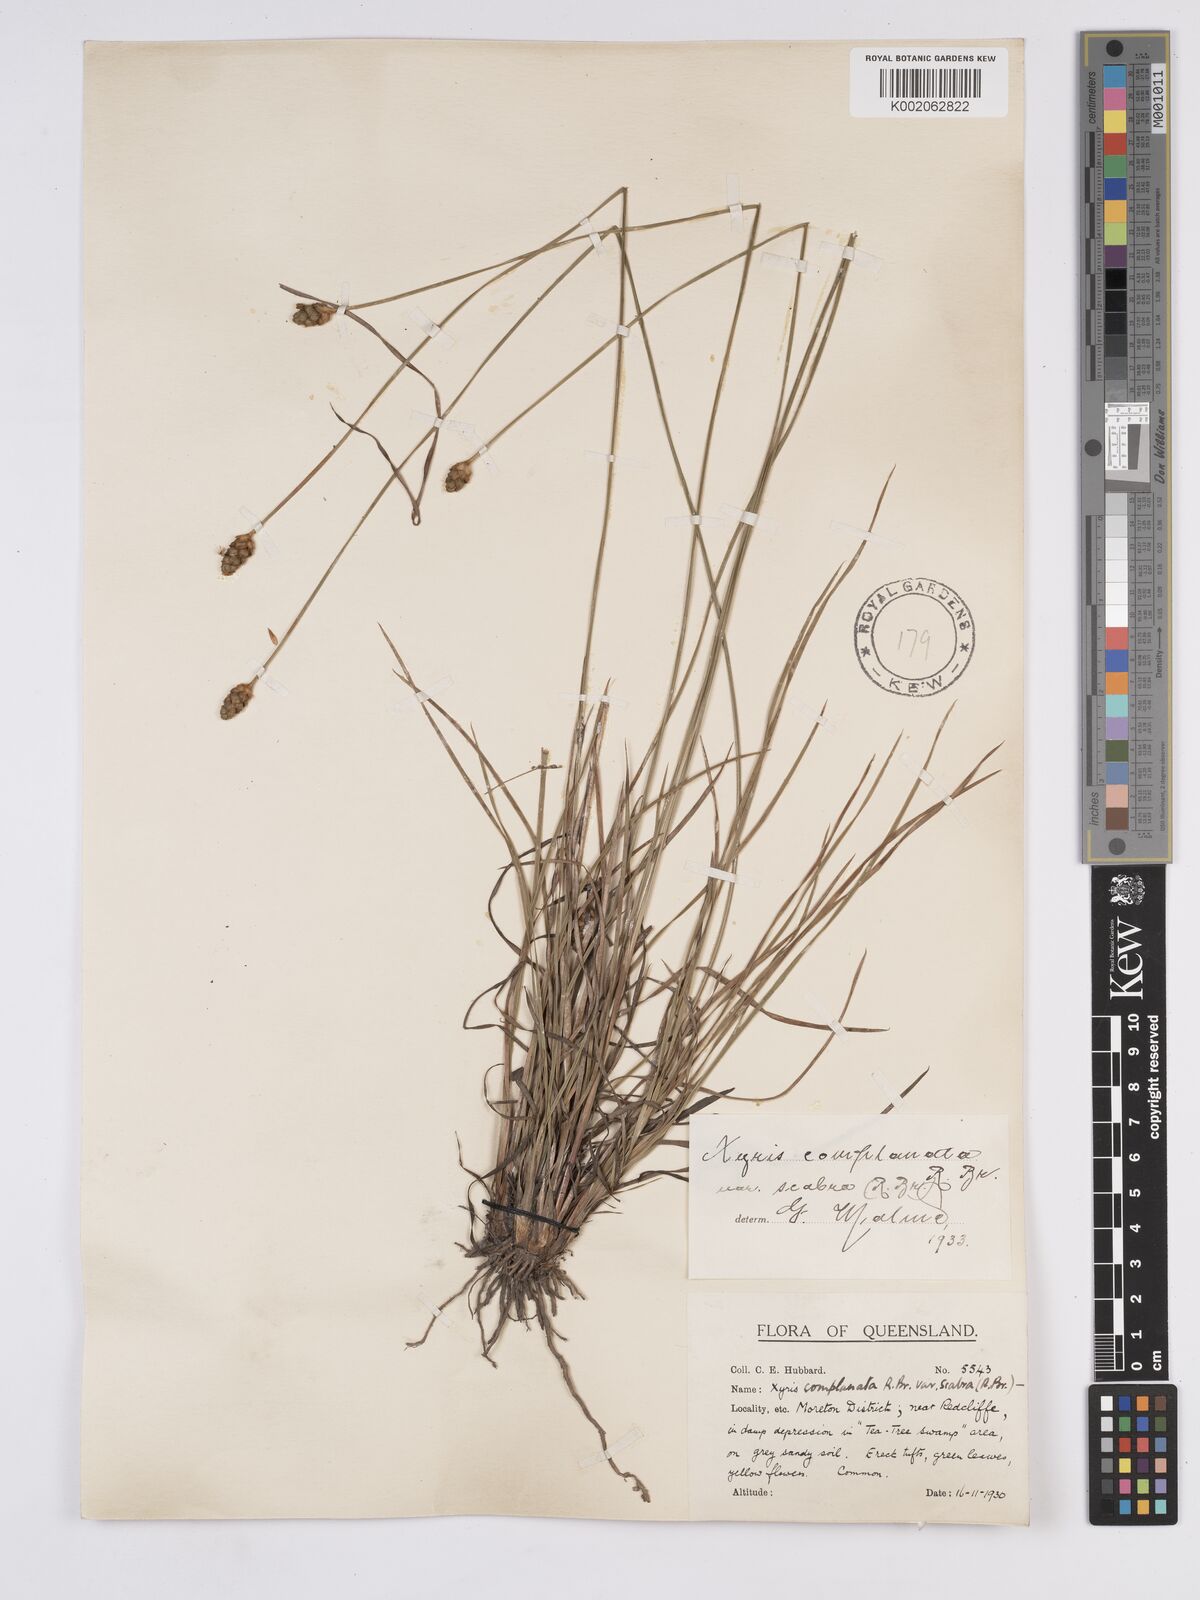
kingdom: Plantae
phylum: Tracheophyta
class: Liliopsida
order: Poales
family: Xyridaceae
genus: Xyris
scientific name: Xyris complanata
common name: Hawai'i yelloweyed grass
